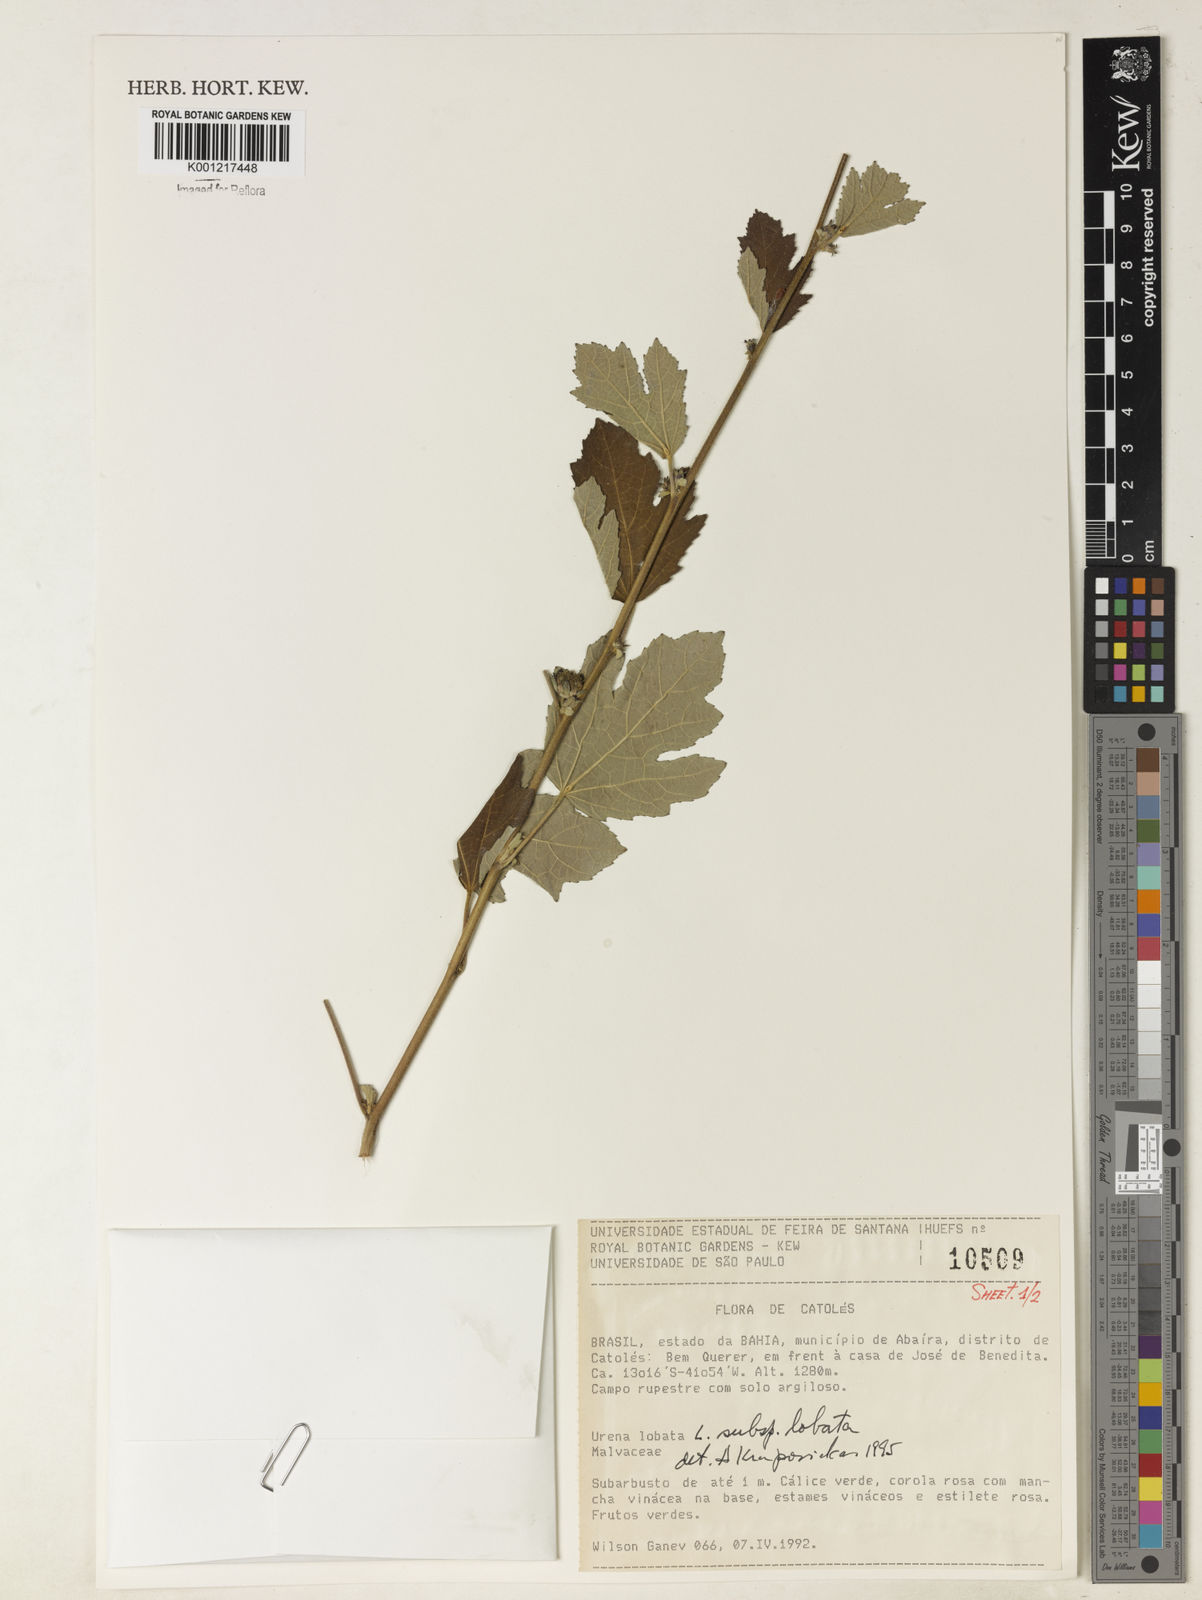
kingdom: Plantae
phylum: Tracheophyta
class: Magnoliopsida
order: Malvales
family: Malvaceae
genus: Urena
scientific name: Urena lobata
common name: Caesarweed
